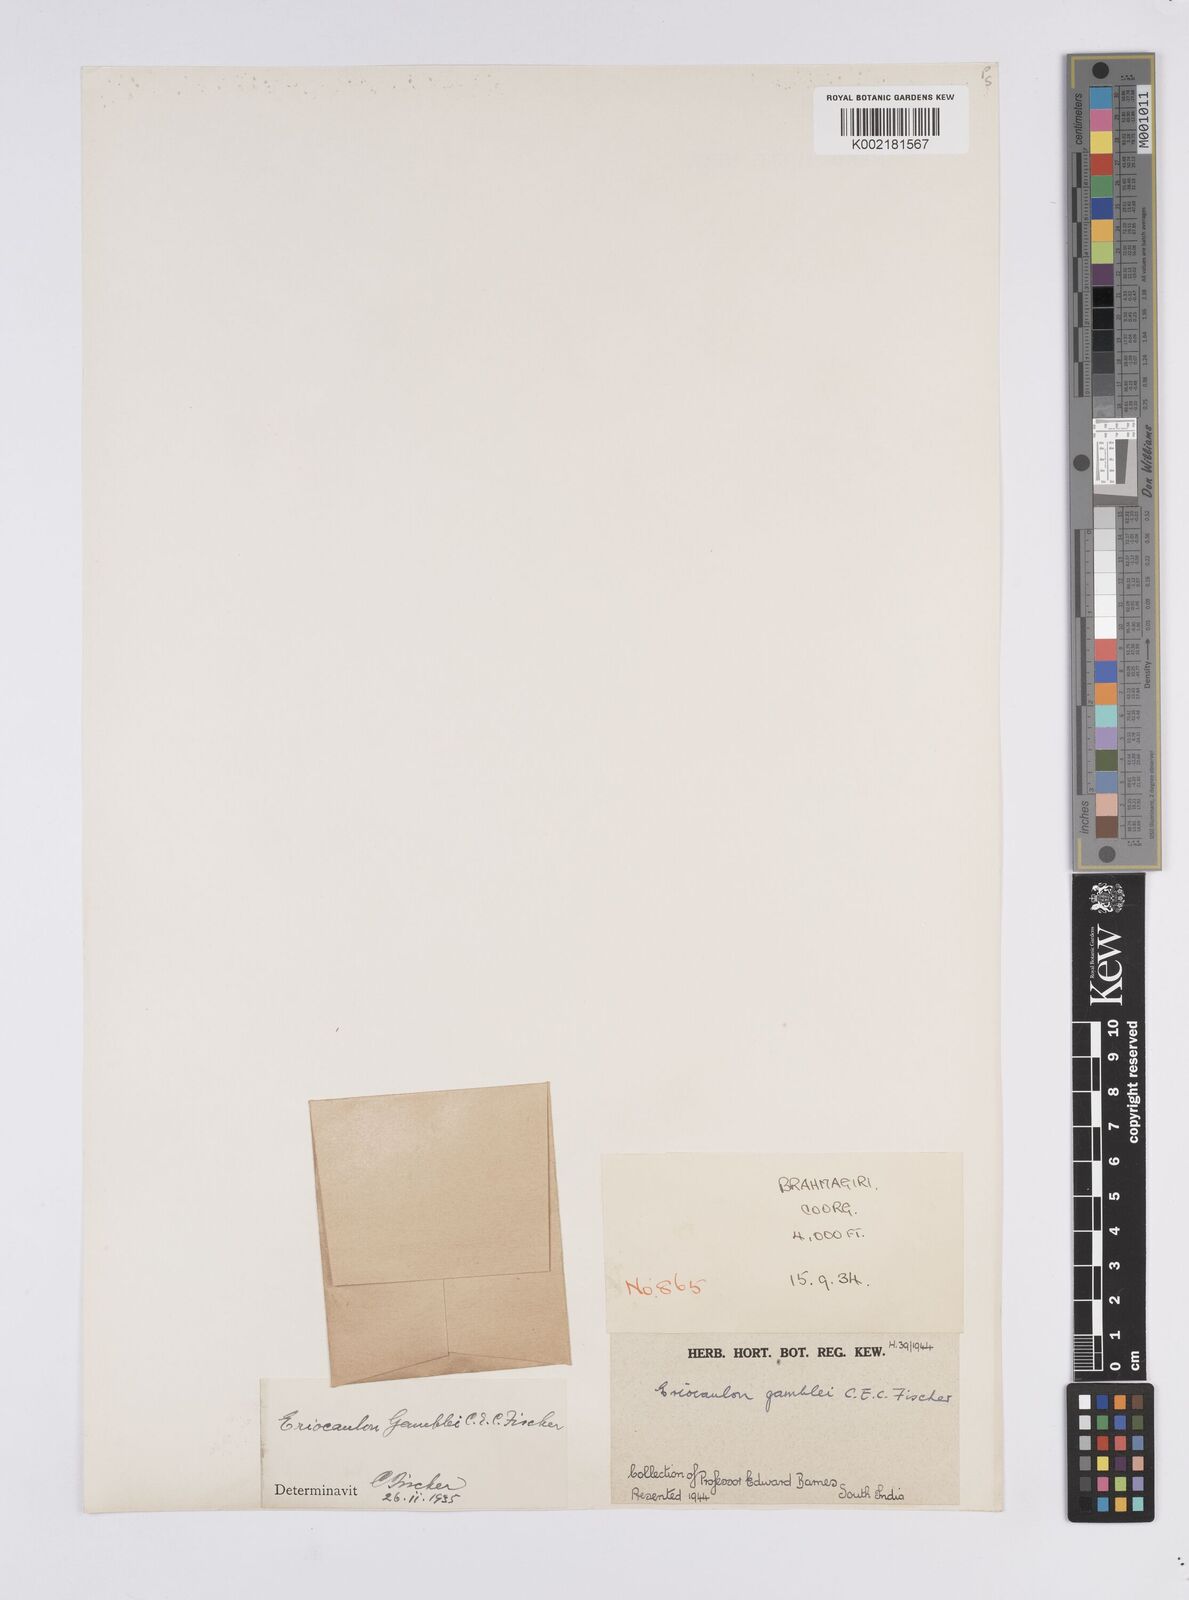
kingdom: Plantae
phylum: Tracheophyta
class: Liliopsida
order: Poales
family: Eriocaulaceae
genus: Eriocaulon
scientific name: Eriocaulon thwaitesii
